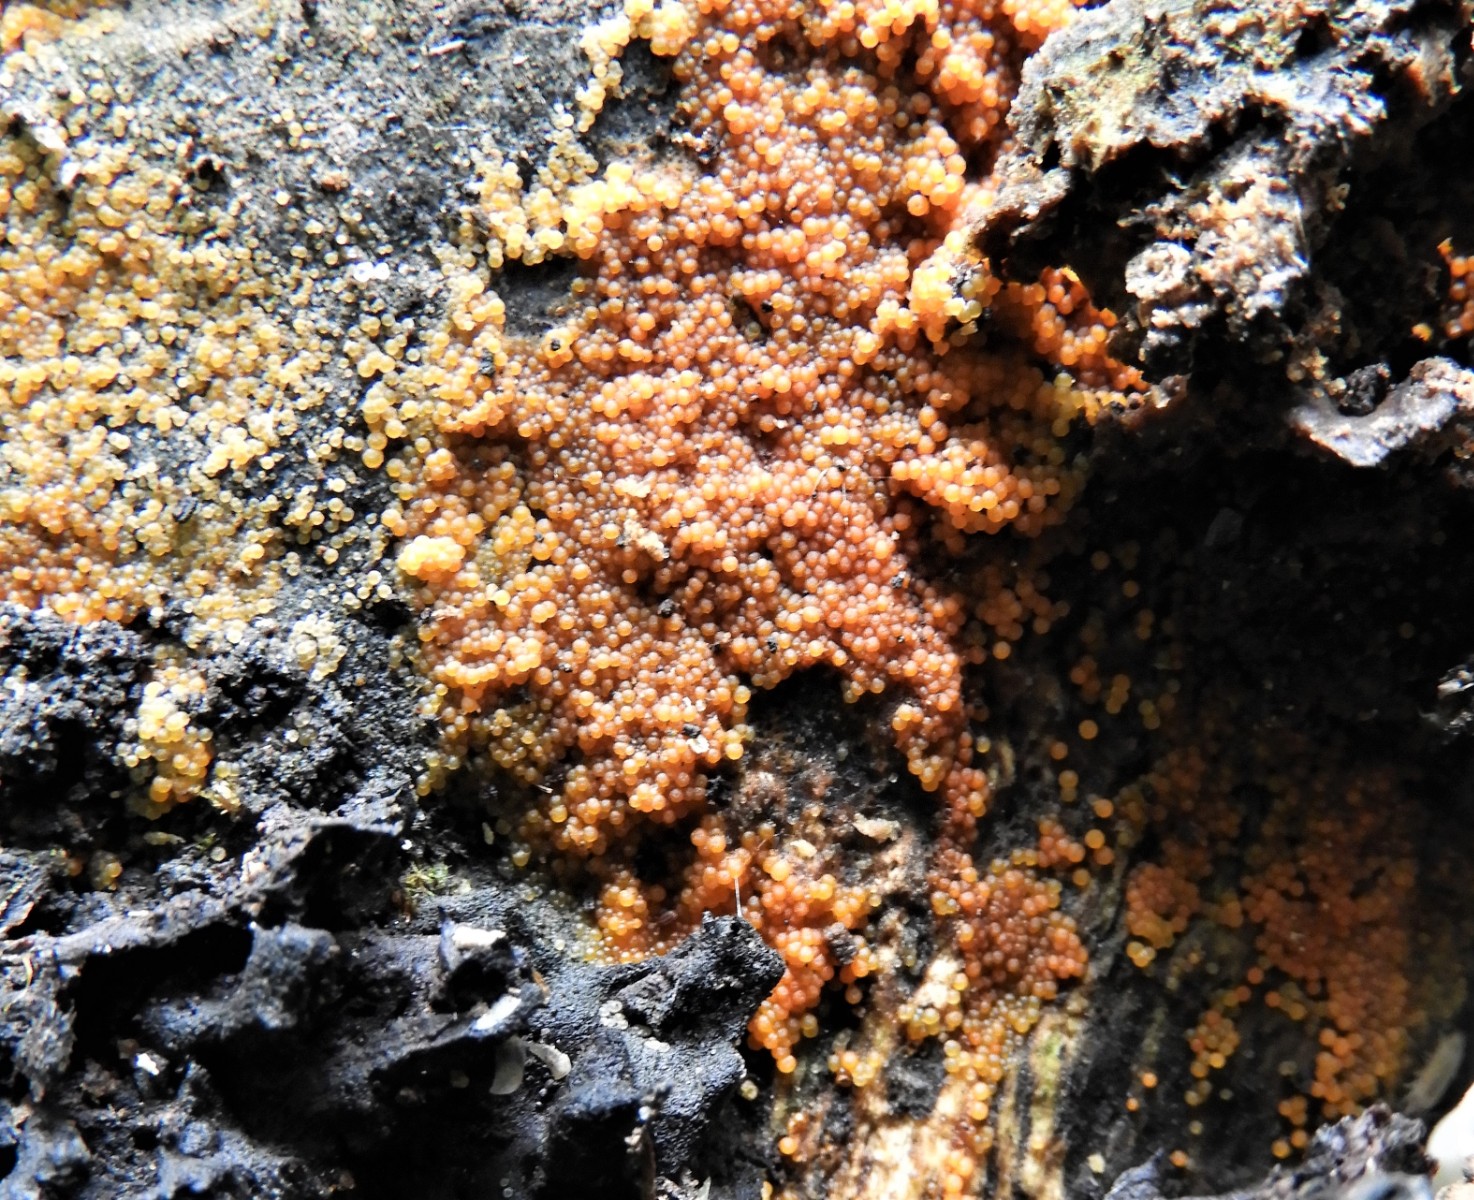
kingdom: Fungi
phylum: Ascomycota
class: Sordariomycetes
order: Hypocreales
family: Nectriaceae
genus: Hydropisphaera
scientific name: Hydropisphaera peziza
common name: skålformet gyldenkerne
